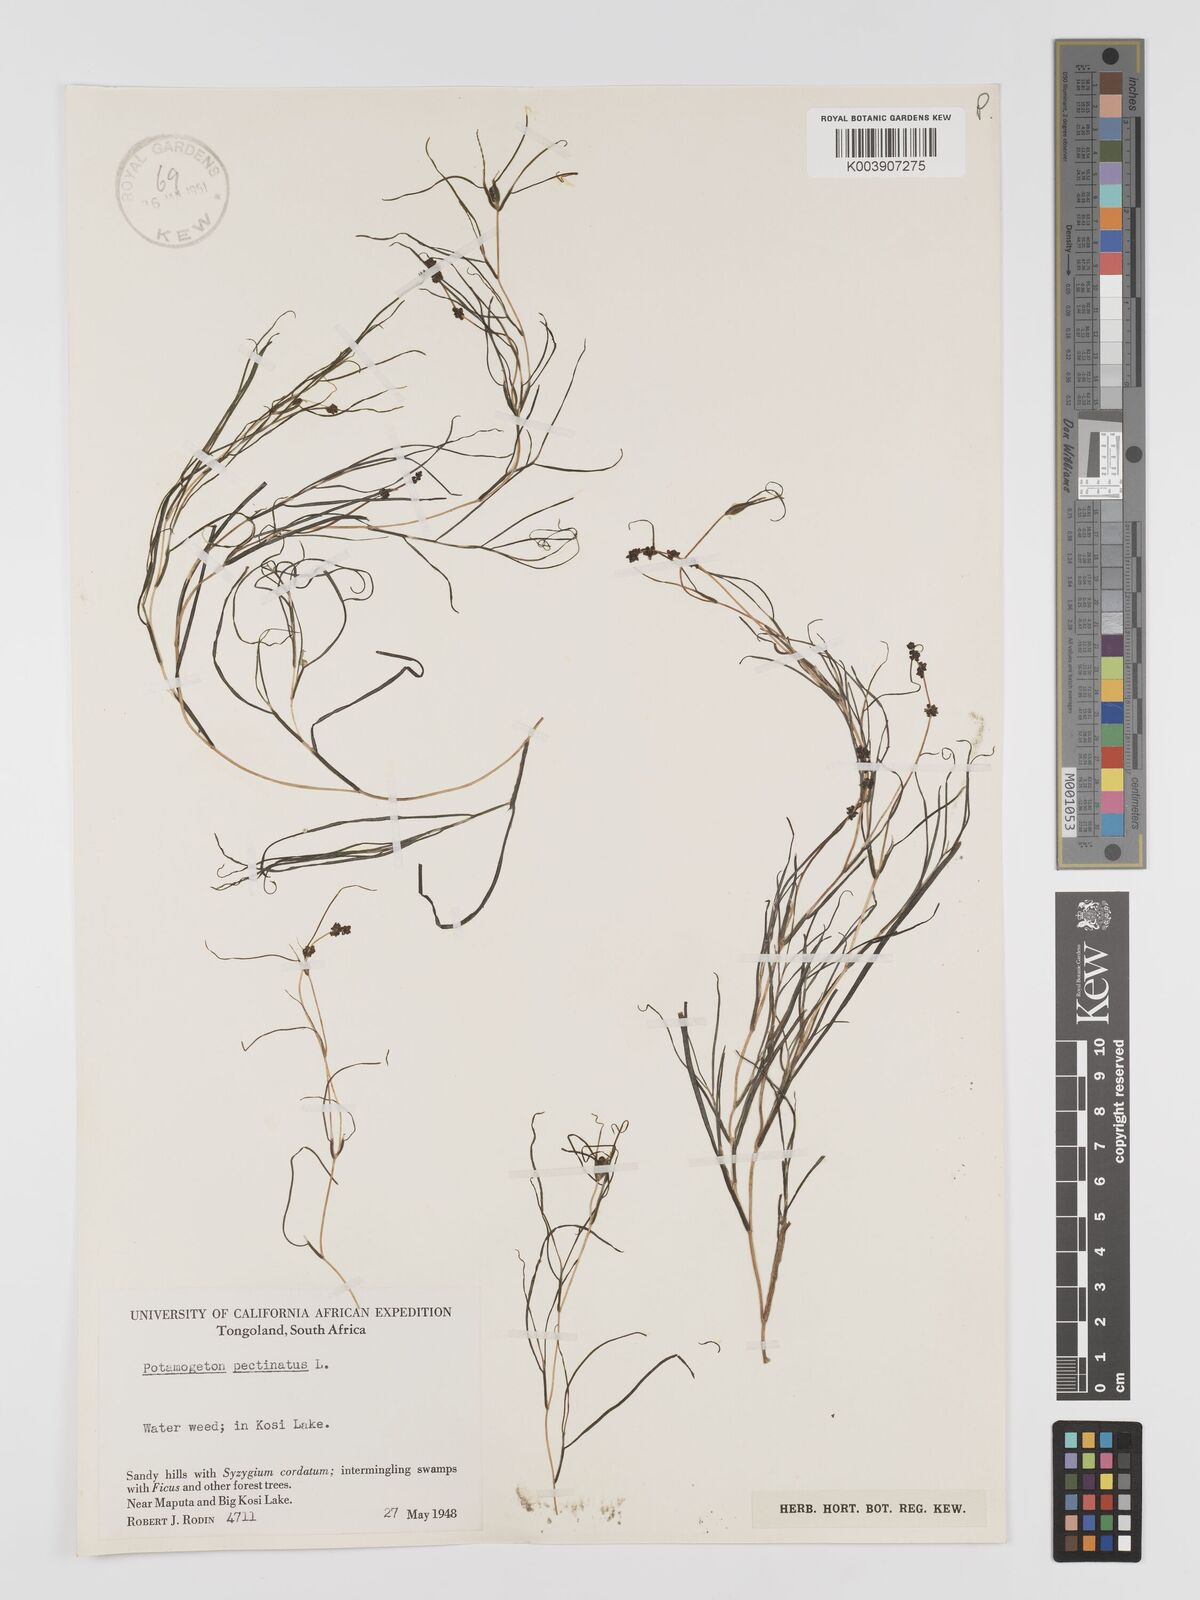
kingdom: Plantae
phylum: Tracheophyta
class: Liliopsida
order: Alismatales
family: Potamogetonaceae
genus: Stuckenia
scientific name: Stuckenia pectinata
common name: Sago pondweed
